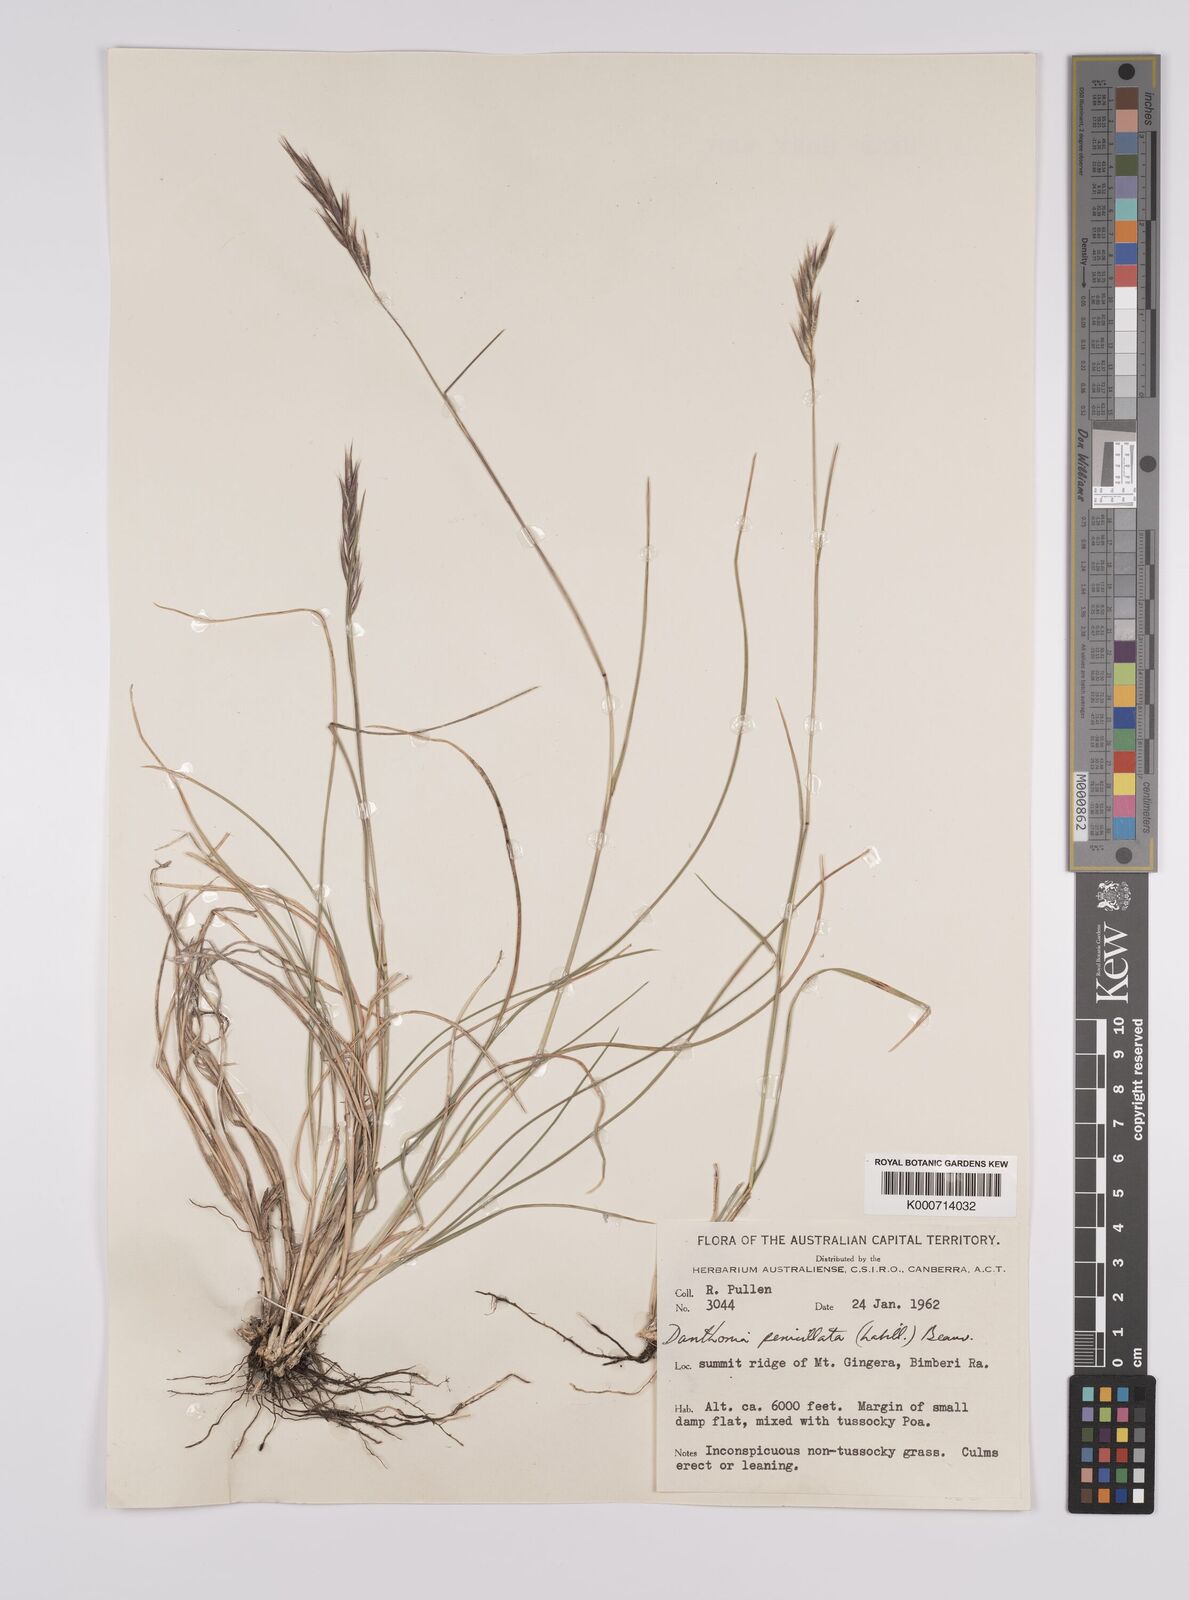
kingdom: Plantae
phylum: Tracheophyta
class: Liliopsida
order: Poales
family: Poaceae
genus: Rytidosperma
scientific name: Rytidosperma penicillatum
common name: Hairy wallaby grass
